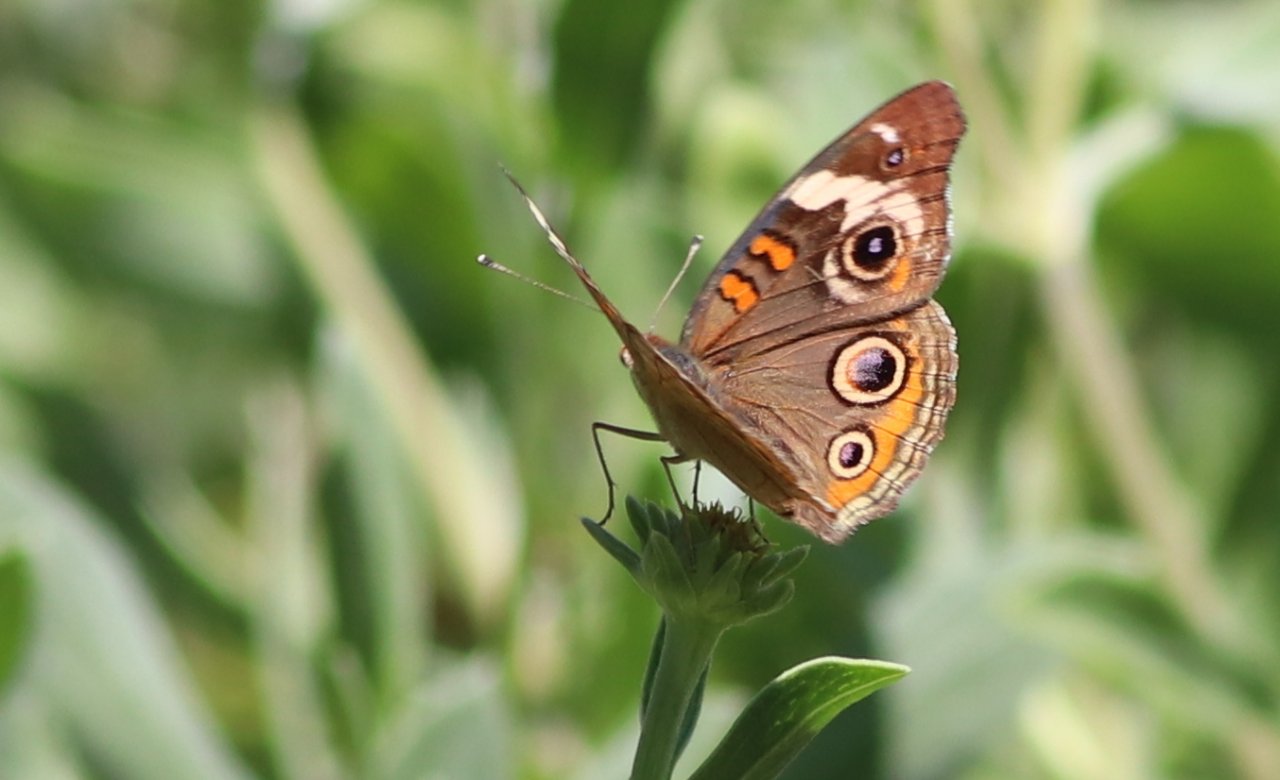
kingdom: Animalia
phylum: Arthropoda
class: Insecta
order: Lepidoptera
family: Nymphalidae
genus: Junonia
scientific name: Junonia coenia
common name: Common Buckeye
